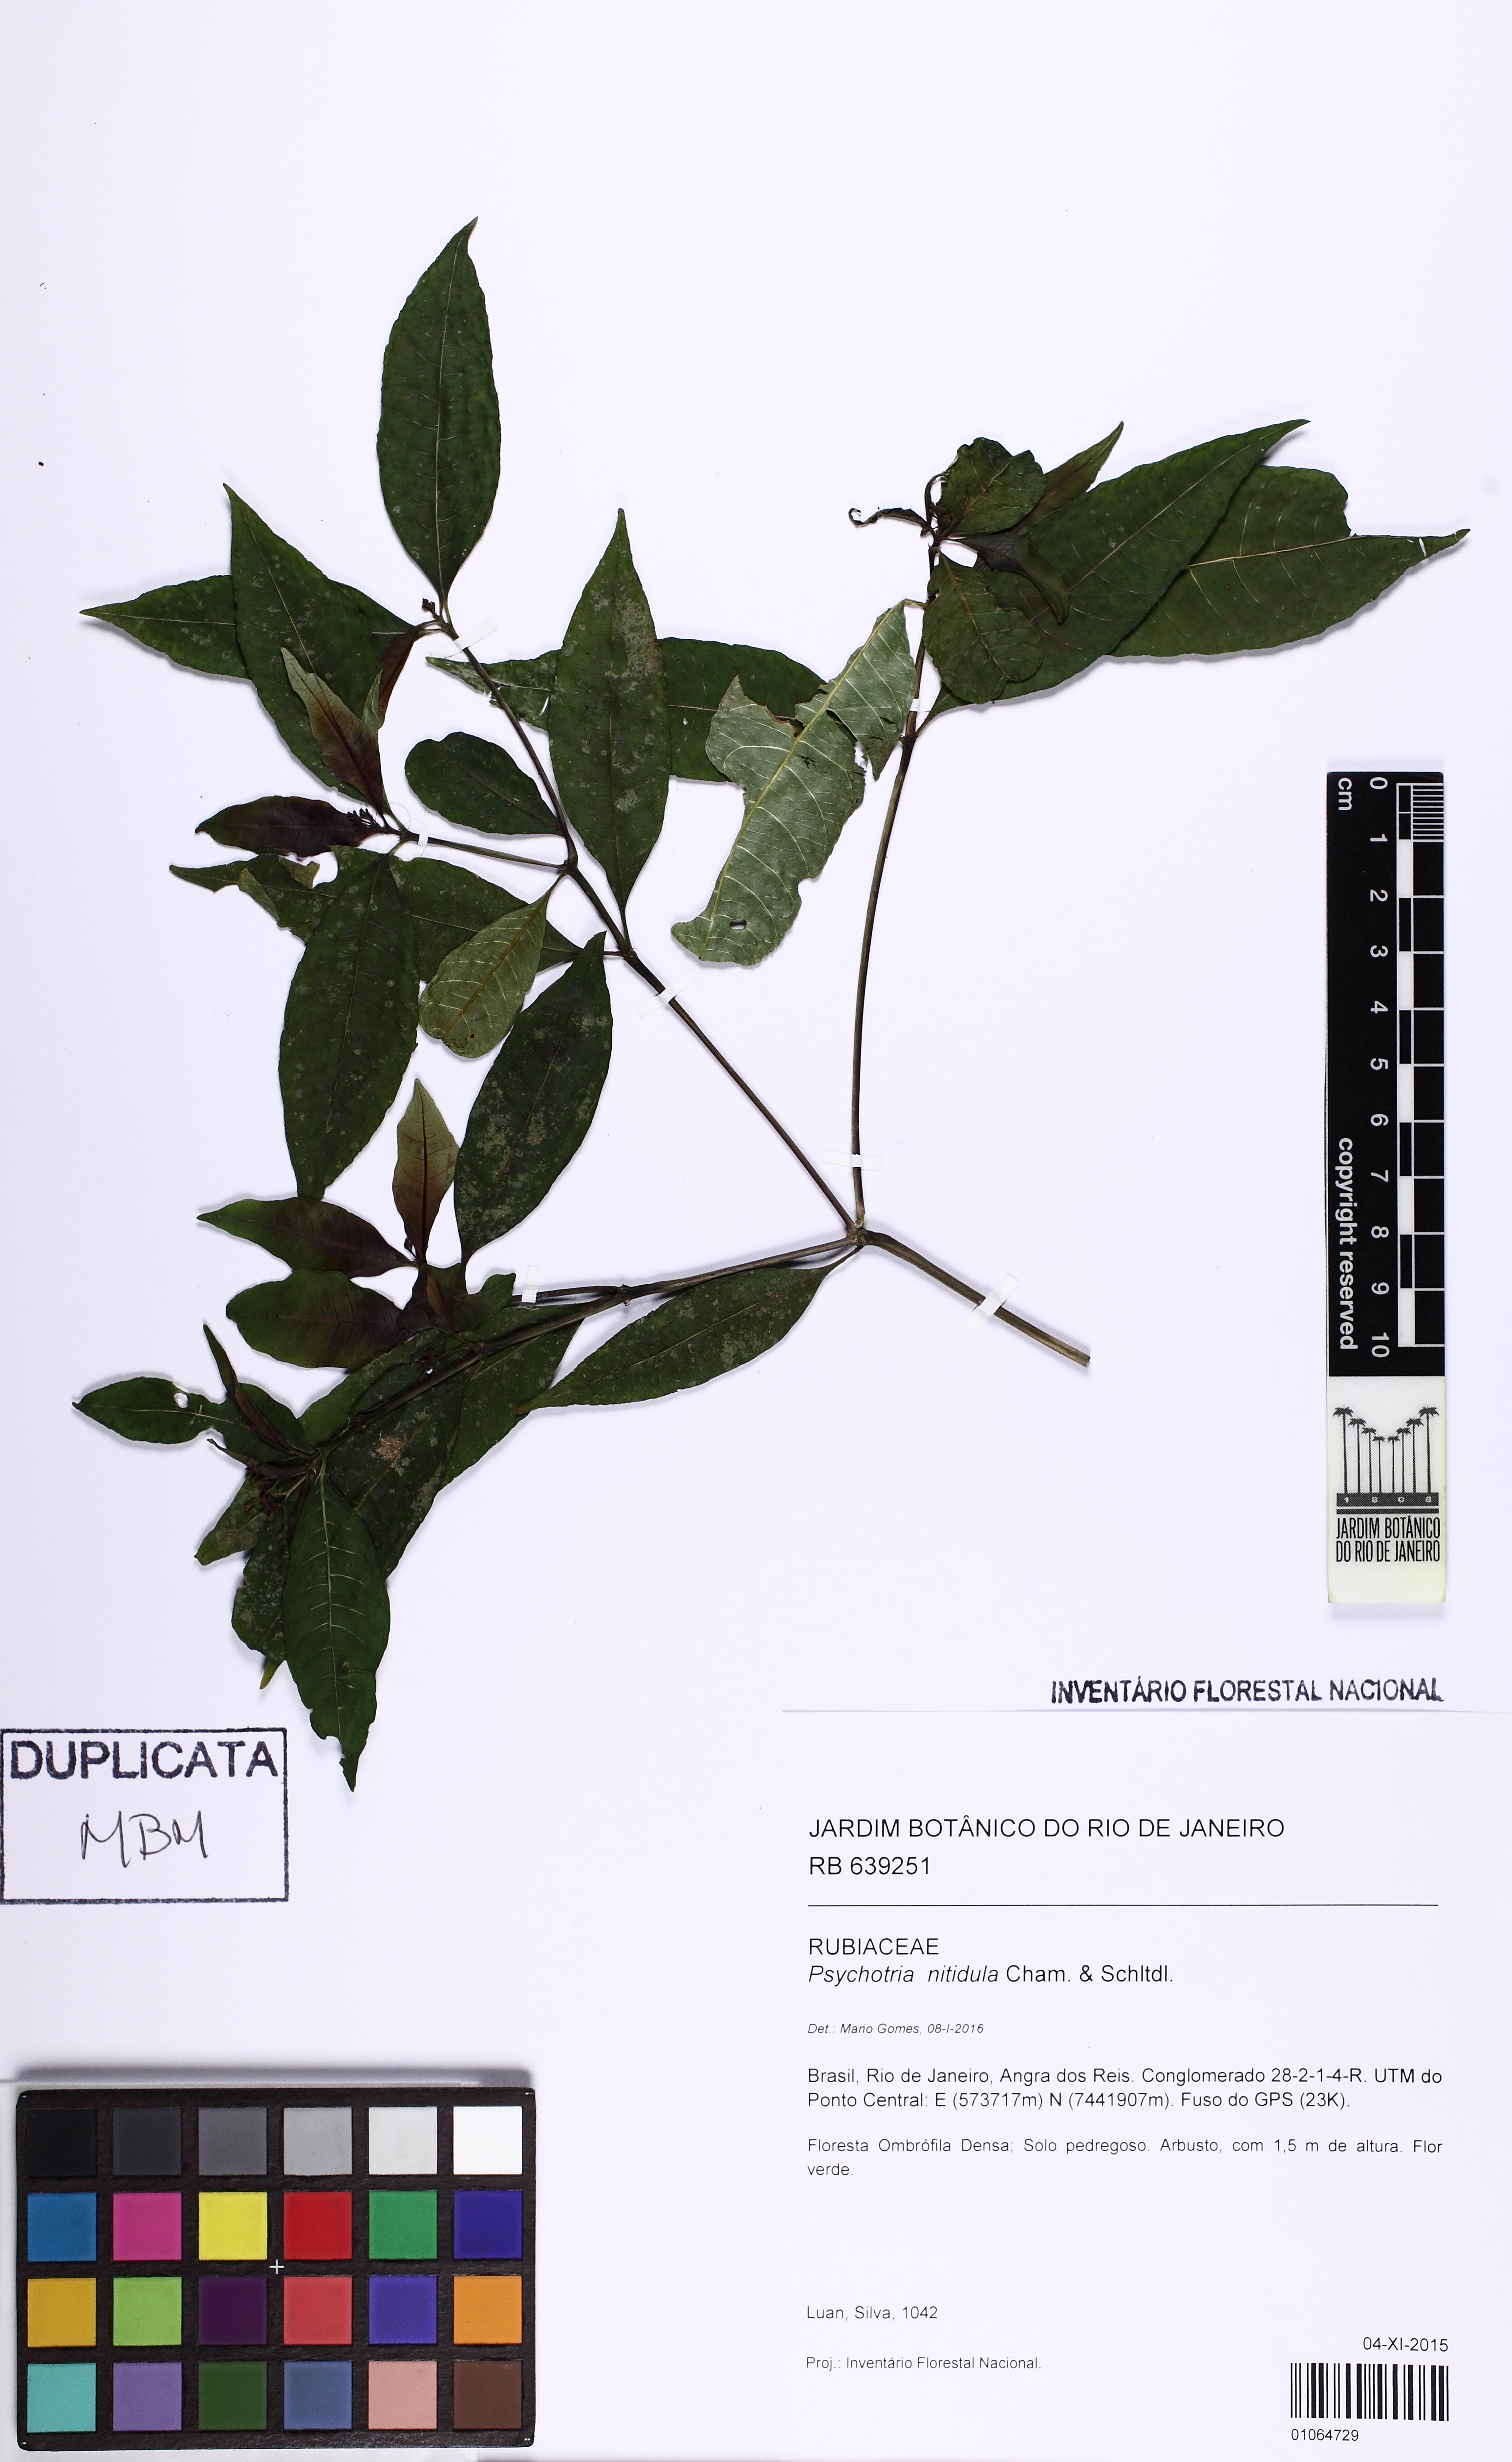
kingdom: Plantae
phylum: Tracheophyta
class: Magnoliopsida
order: Gentianales
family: Rubiaceae
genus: Psychotria
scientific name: Psychotria leiocarpa
